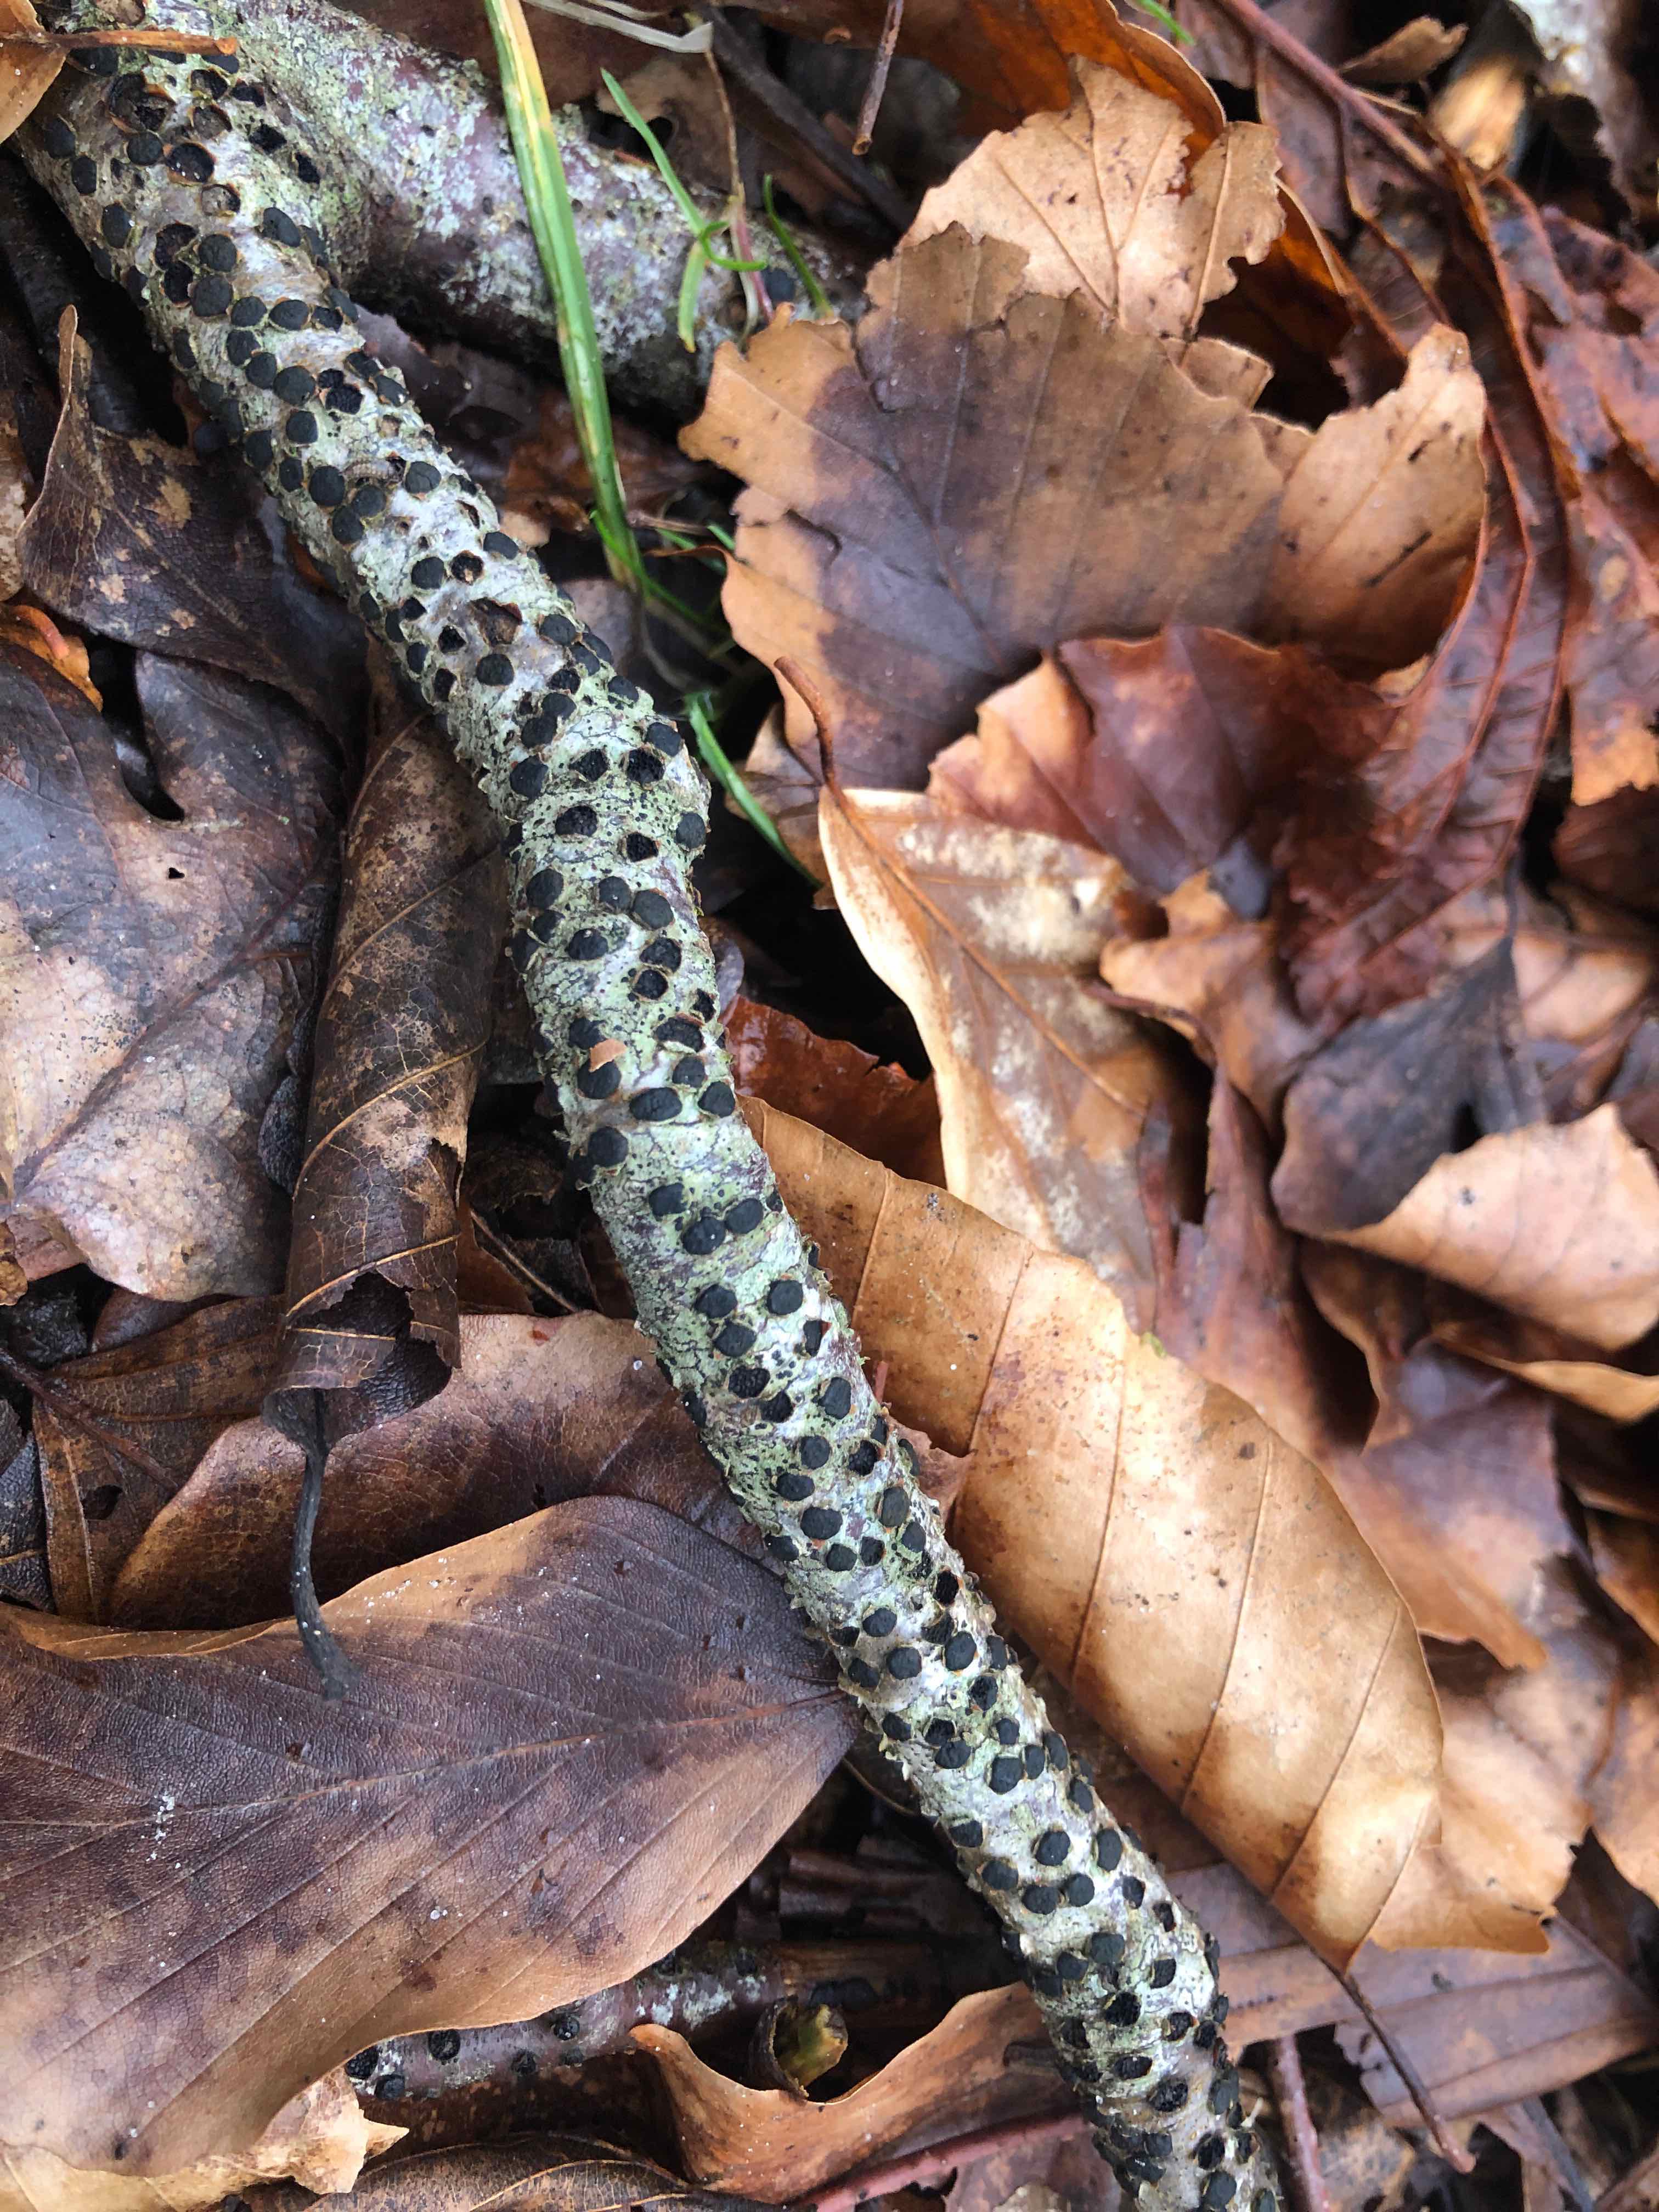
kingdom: Fungi
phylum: Ascomycota
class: Sordariomycetes
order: Xylariales
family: Diatrypaceae
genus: Diatrype
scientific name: Diatrype disciformis
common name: kant-kulskorpe
